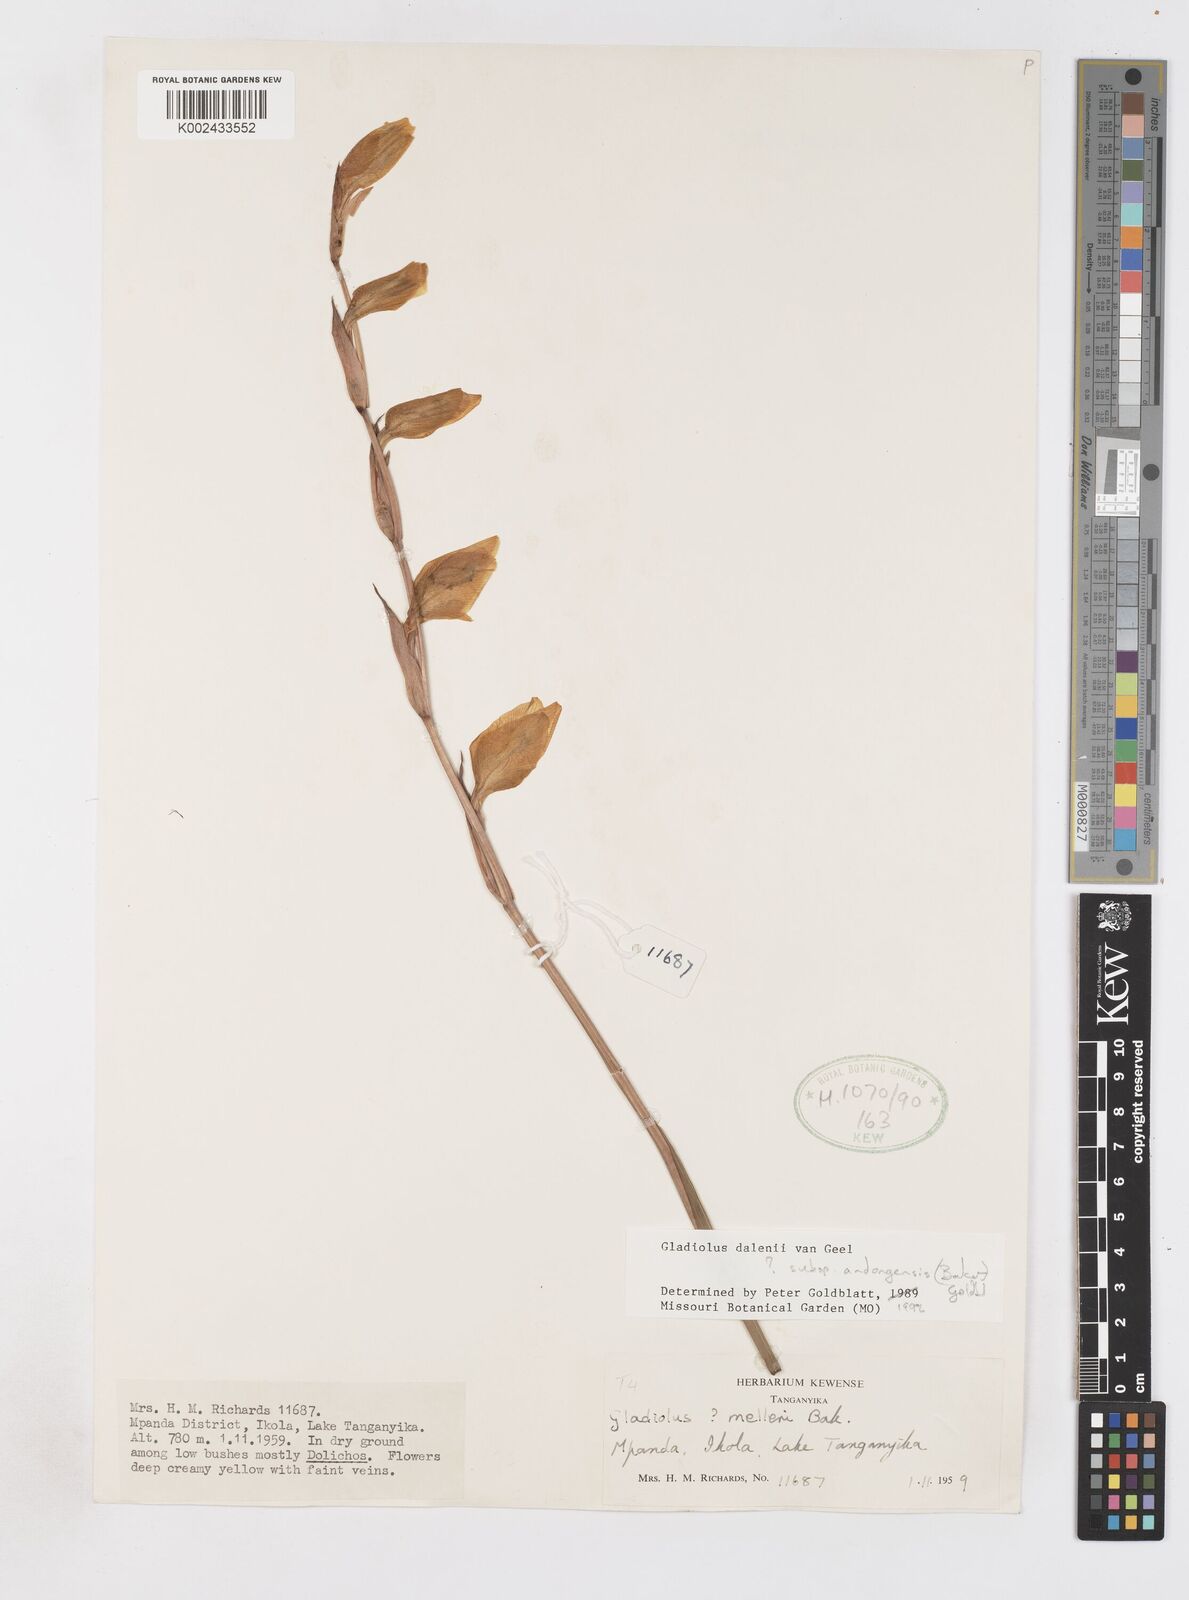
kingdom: Plantae
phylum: Tracheophyta
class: Liliopsida
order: Asparagales
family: Iridaceae
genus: Gladiolus
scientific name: Gladiolus dalenii
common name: Cornflag
